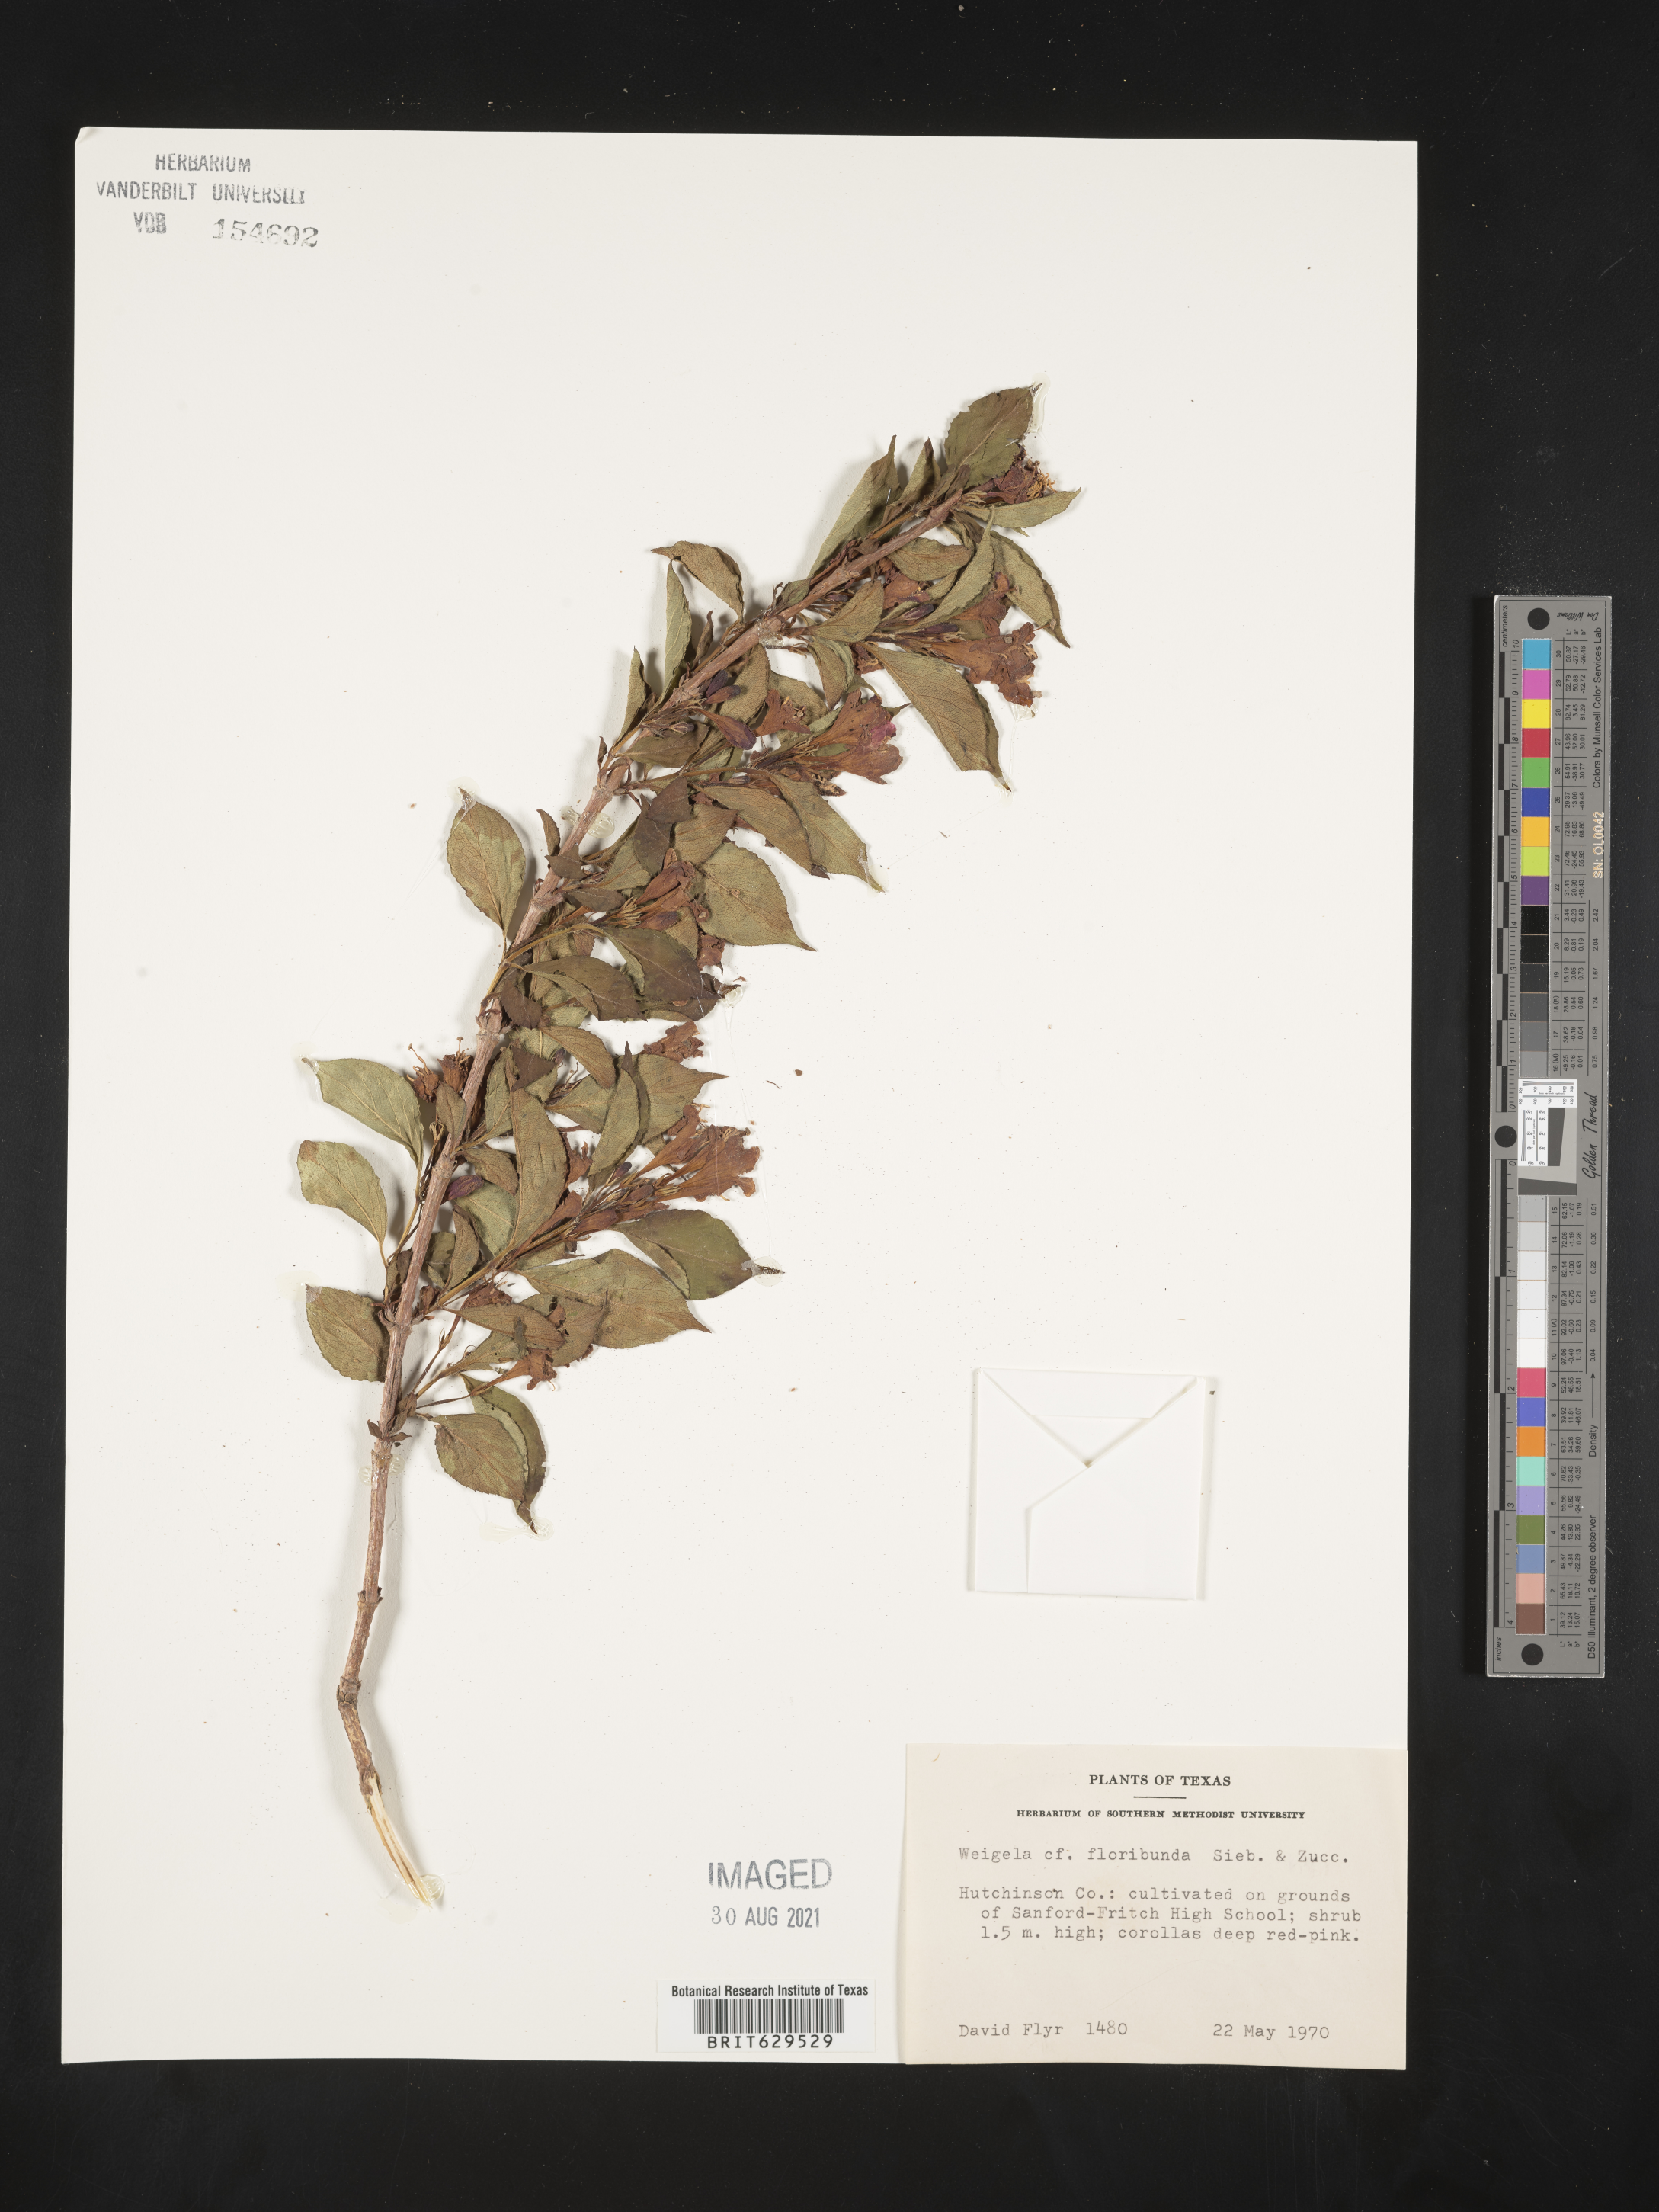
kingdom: Plantae
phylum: Tracheophyta
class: Magnoliopsida
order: Dipsacales
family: Caprifoliaceae
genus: Weigelia
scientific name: Weigelia floribunda
